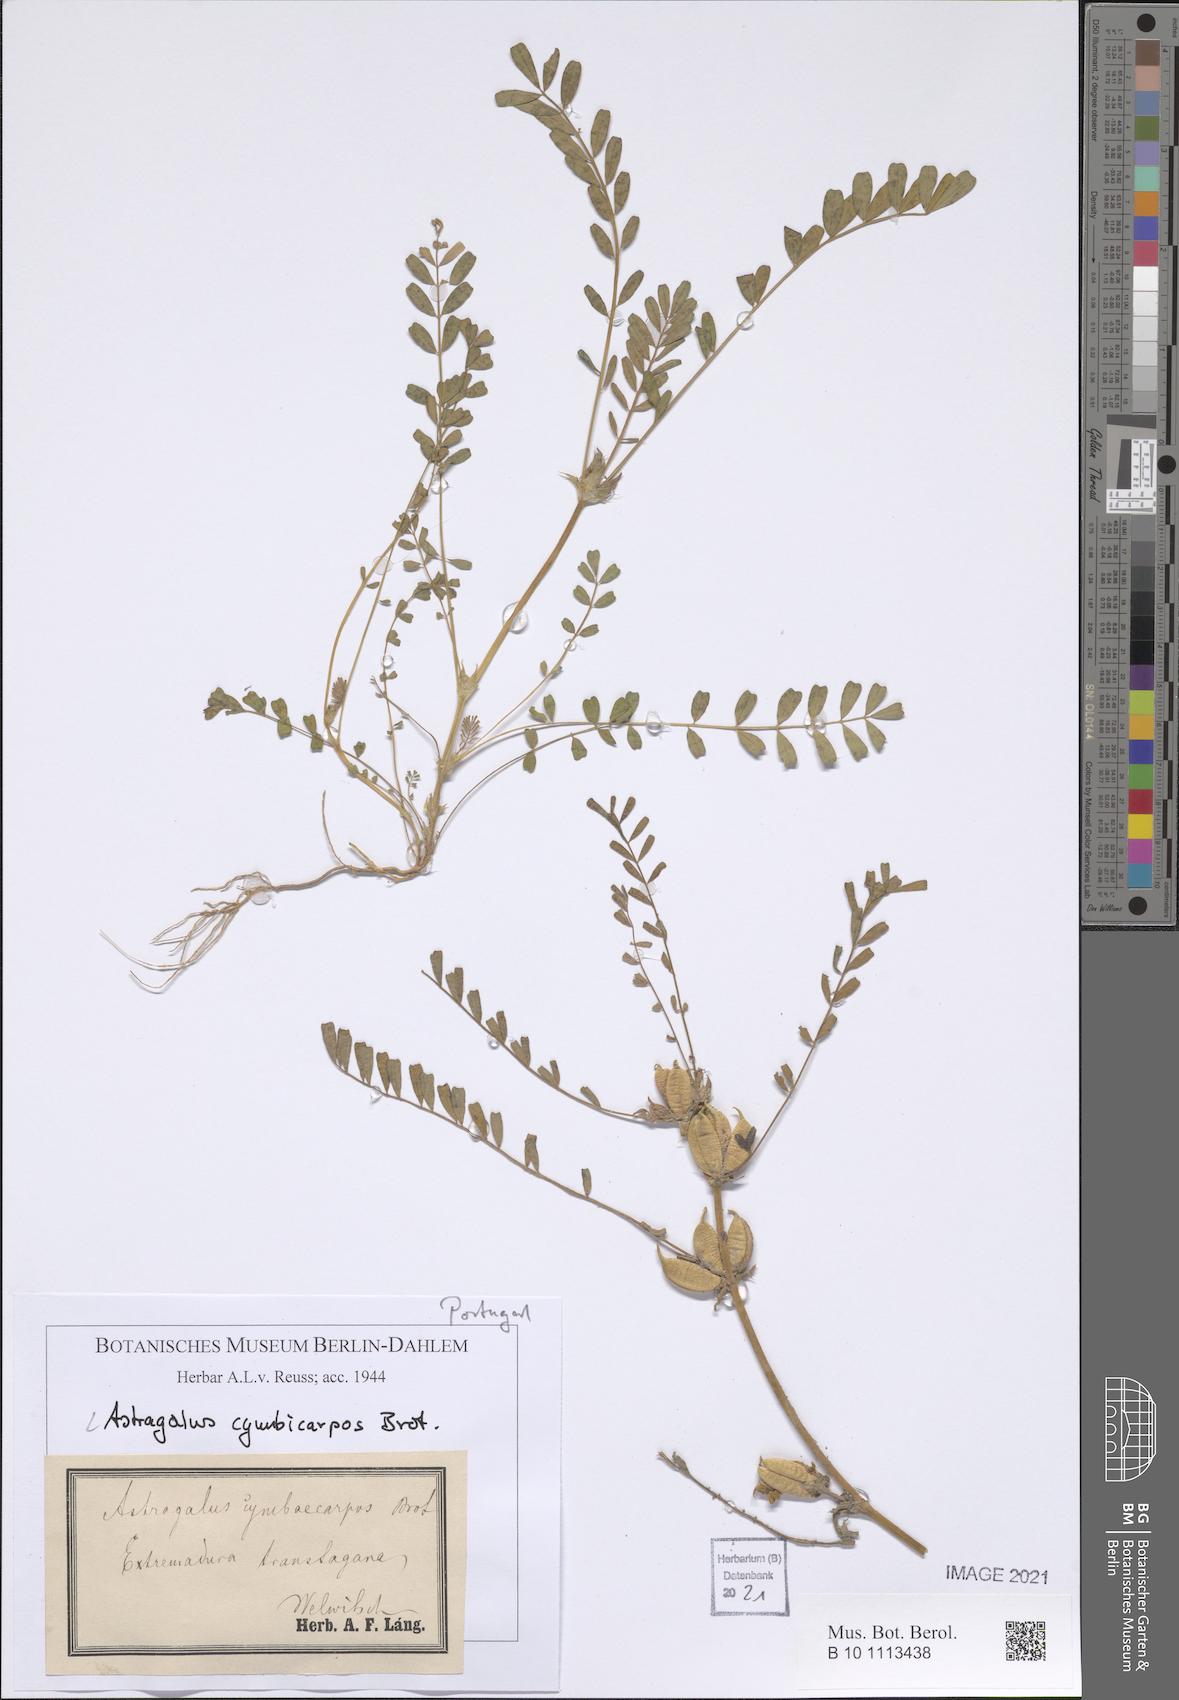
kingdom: Plantae
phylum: Tracheophyta
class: Magnoliopsida
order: Fabales
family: Fabaceae
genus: Astragalus
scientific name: Astragalus cymbicarpos
